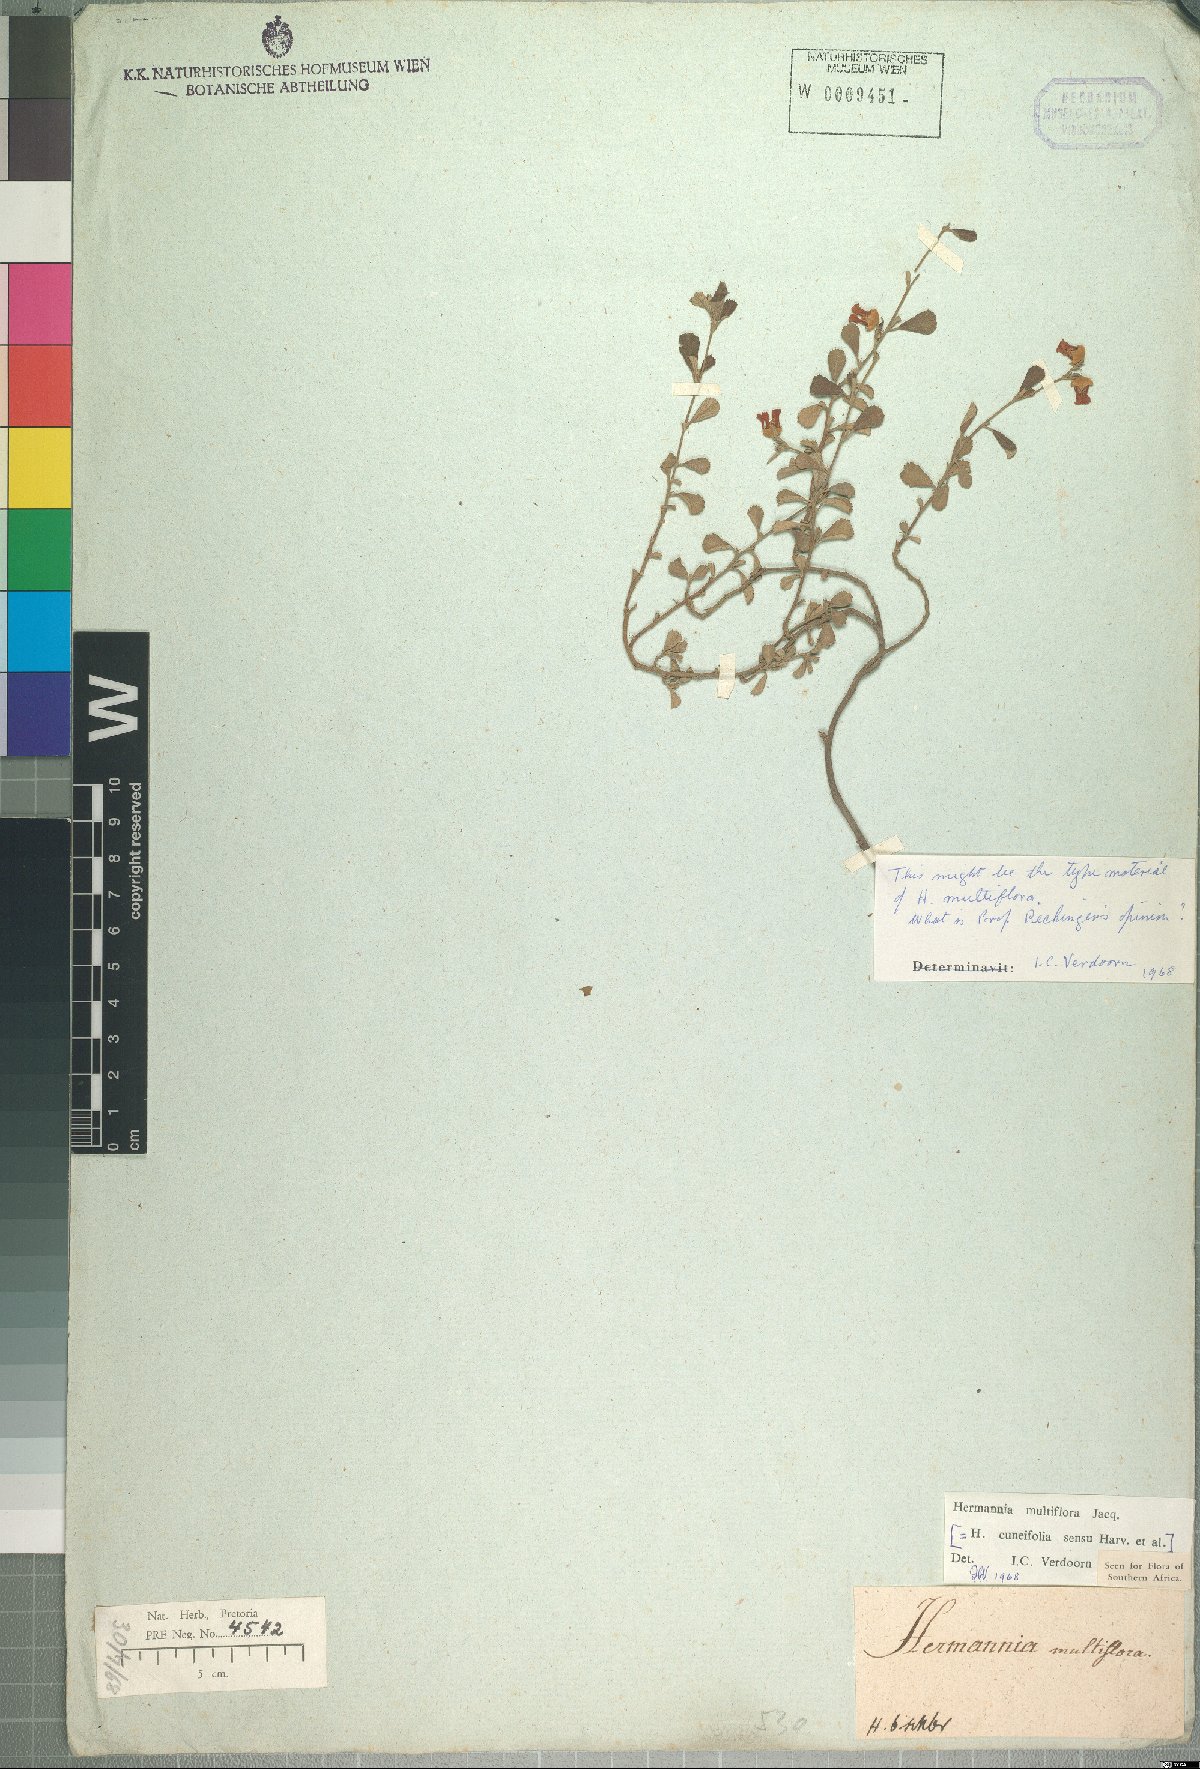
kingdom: Plantae
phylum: Tracheophyta
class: Magnoliopsida
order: Malvales
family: Malvaceae
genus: Hermannia
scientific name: Hermannia multiflora
